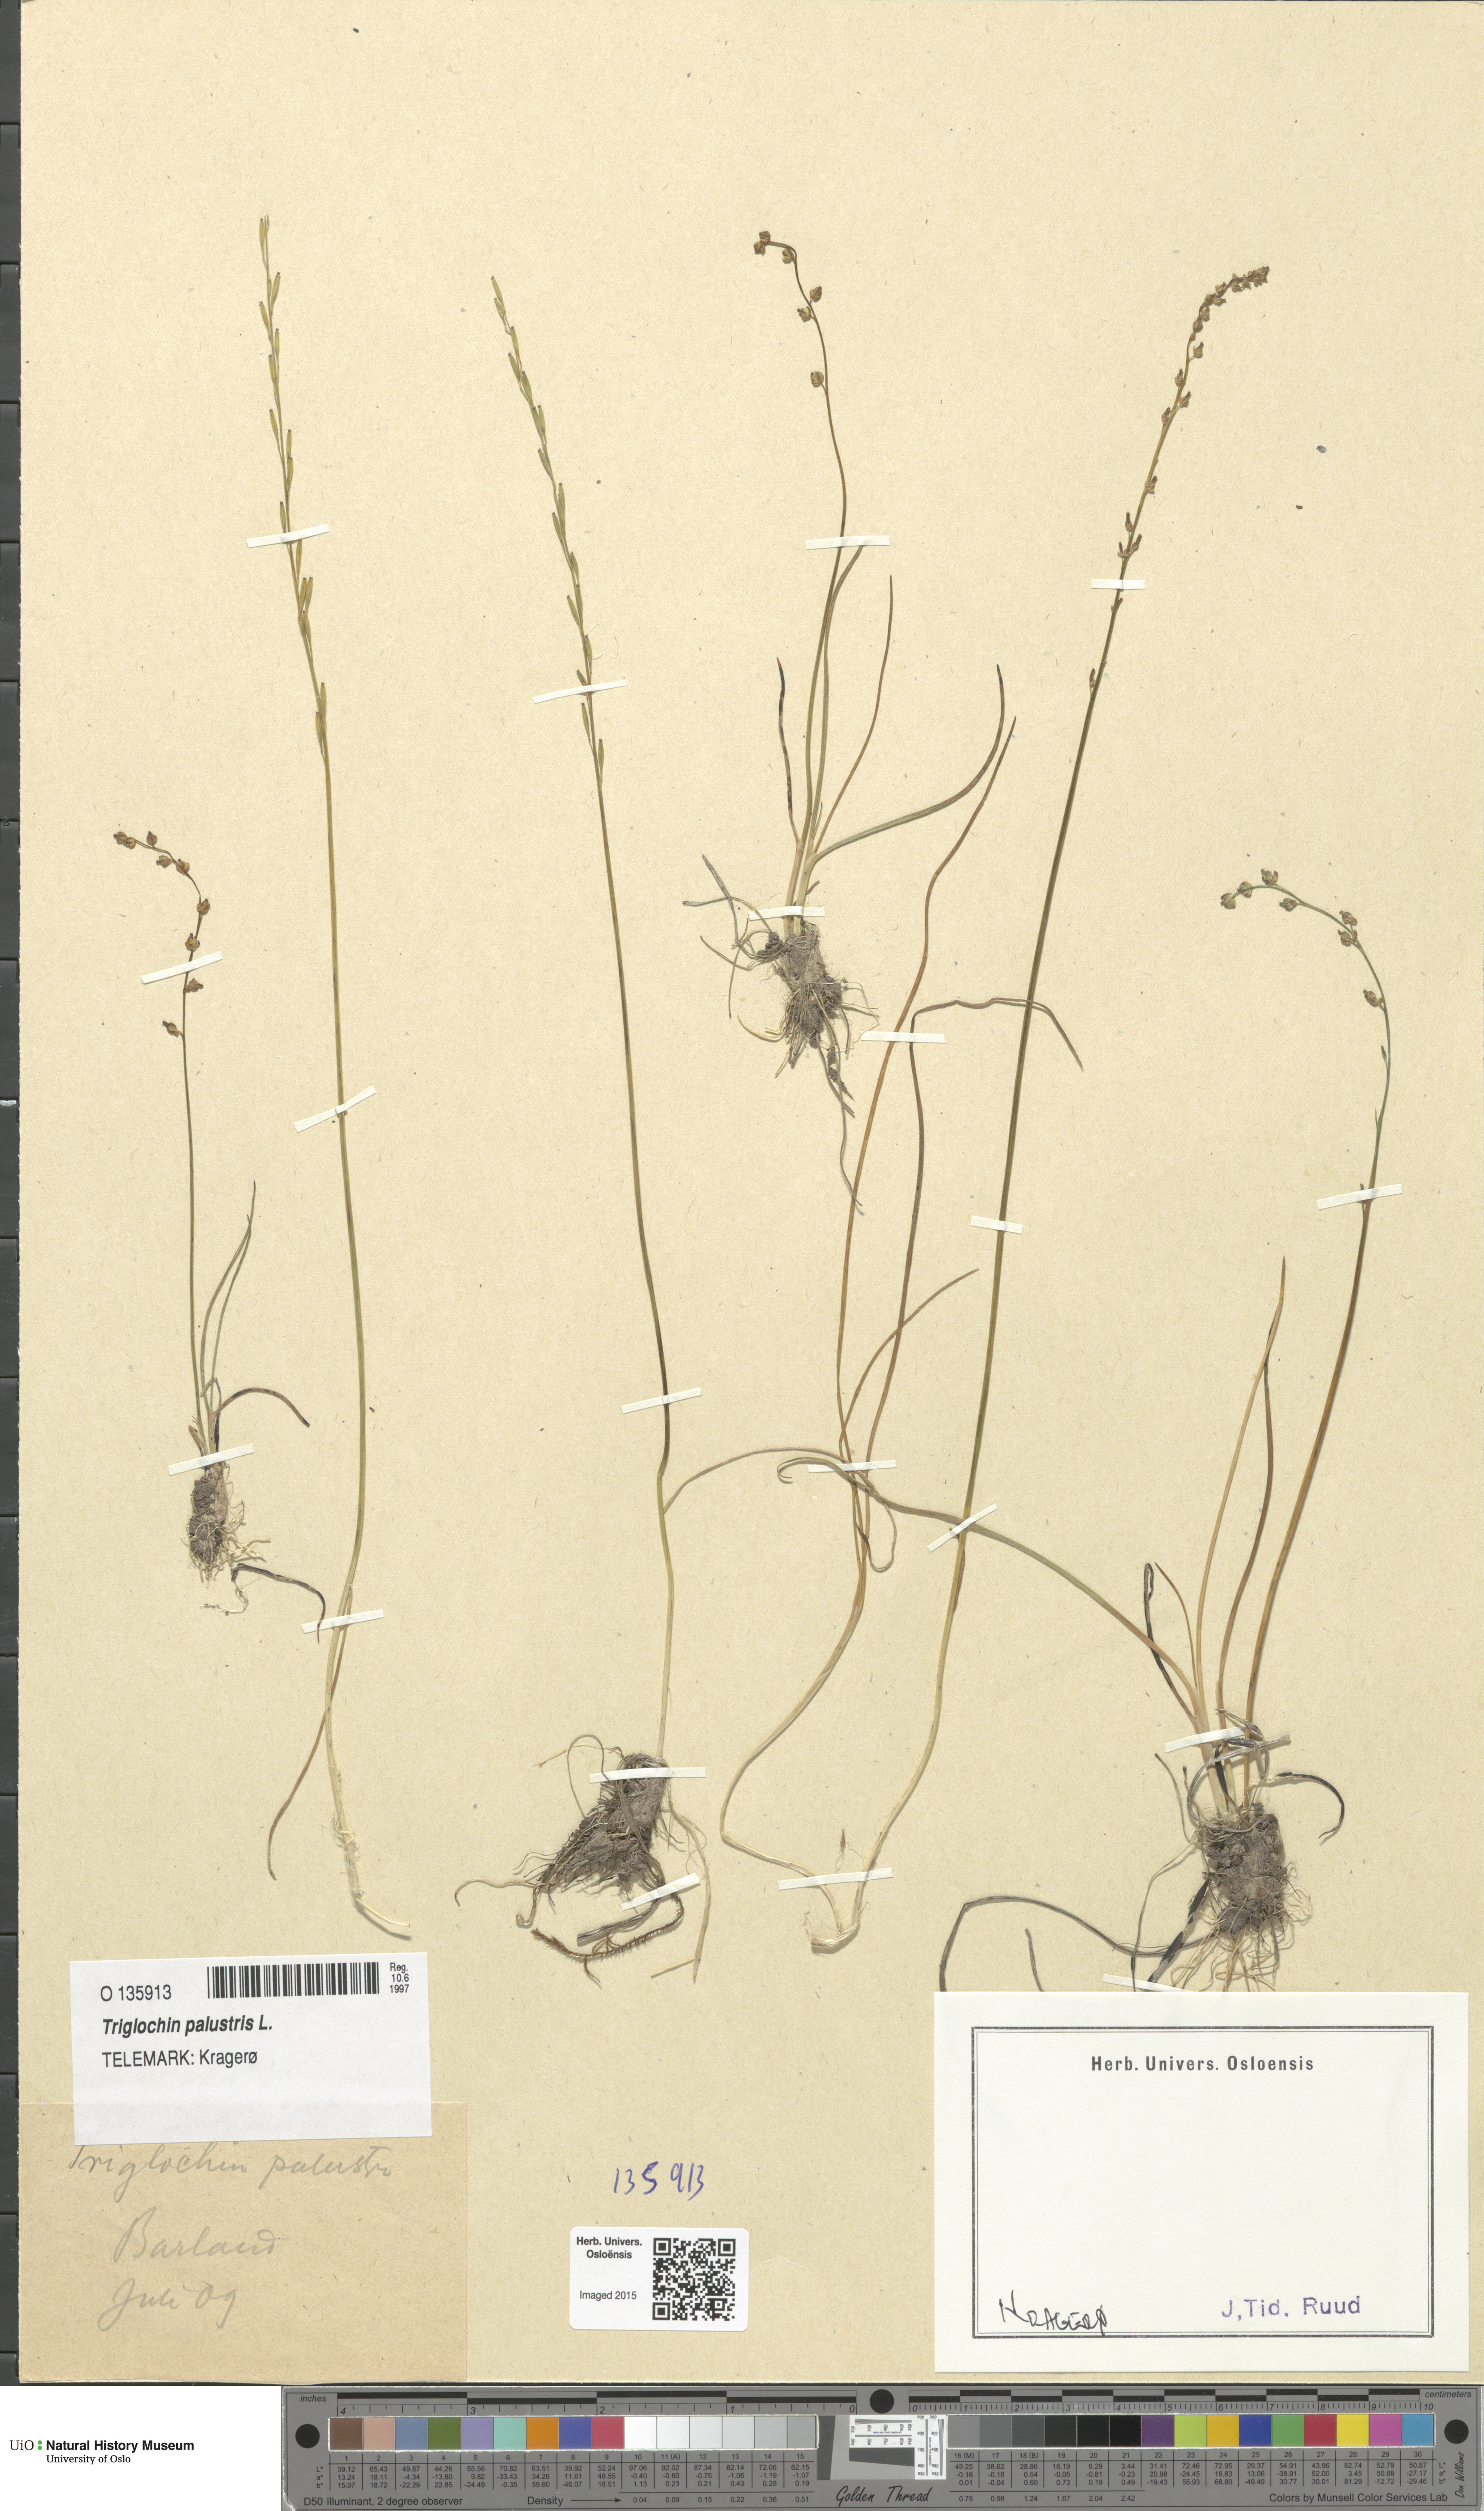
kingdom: Plantae
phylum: Tracheophyta
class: Liliopsida
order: Alismatales
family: Juncaginaceae
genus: Triglochin
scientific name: Triglochin palustris
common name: Marsh arrowgrass
